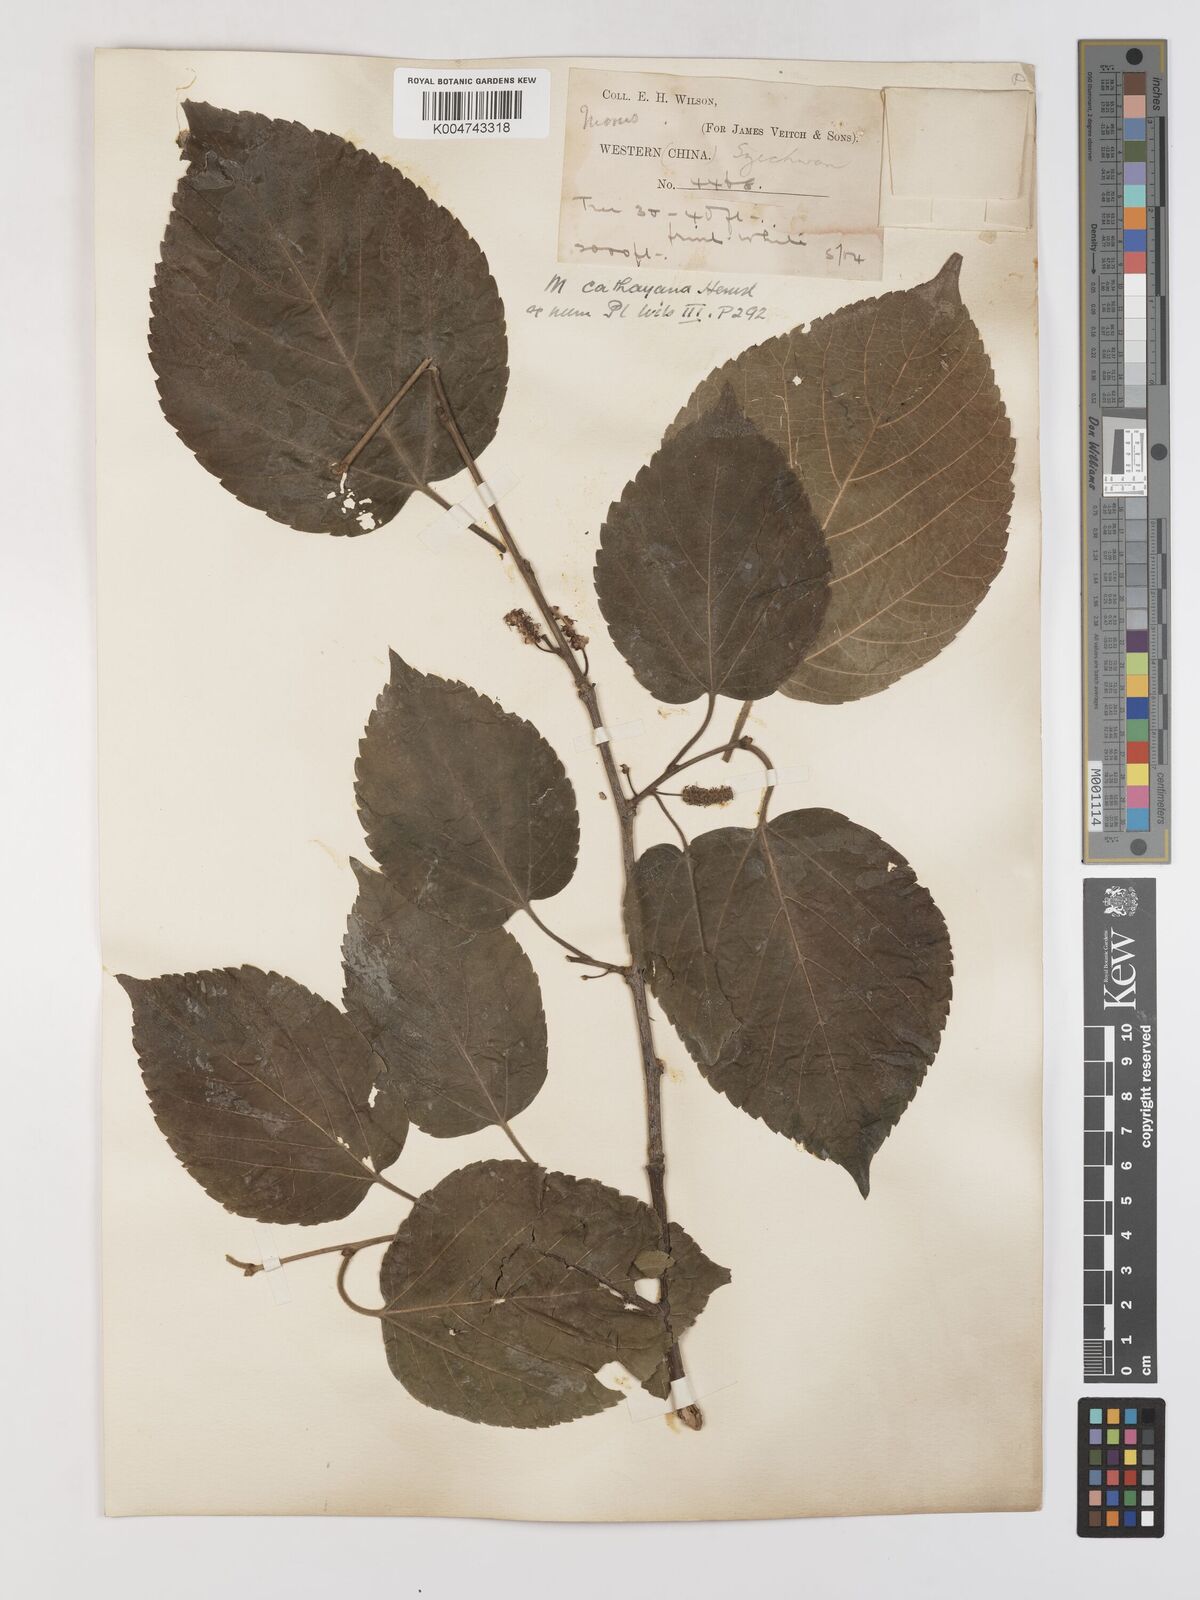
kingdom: Plantae
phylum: Tracheophyta
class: Magnoliopsida
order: Rosales
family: Moraceae
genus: Morus
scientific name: Morus cathayana
